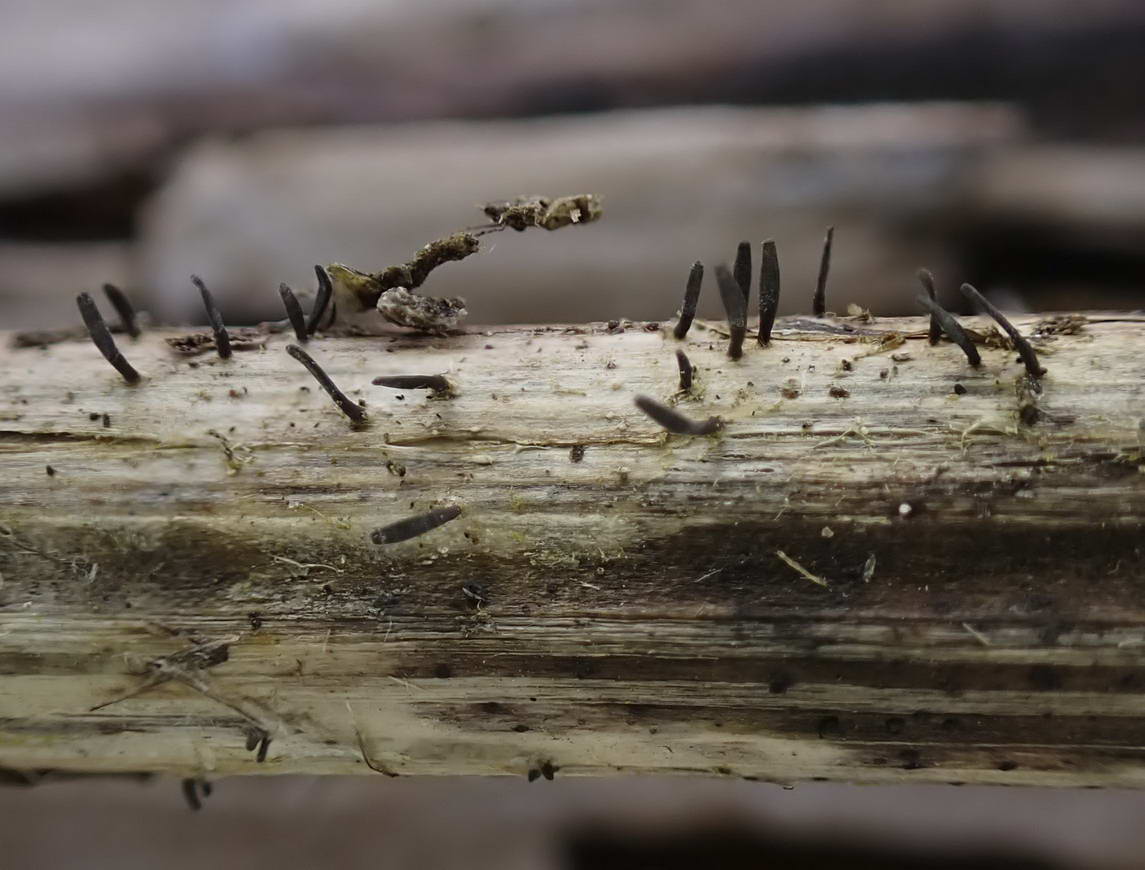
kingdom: Fungi
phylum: Ascomycota
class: Dothideomycetes
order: Acrospermales
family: Acrospermaceae
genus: Acrospermum
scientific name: Acrospermum compressum
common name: nælde-stængeltunge
